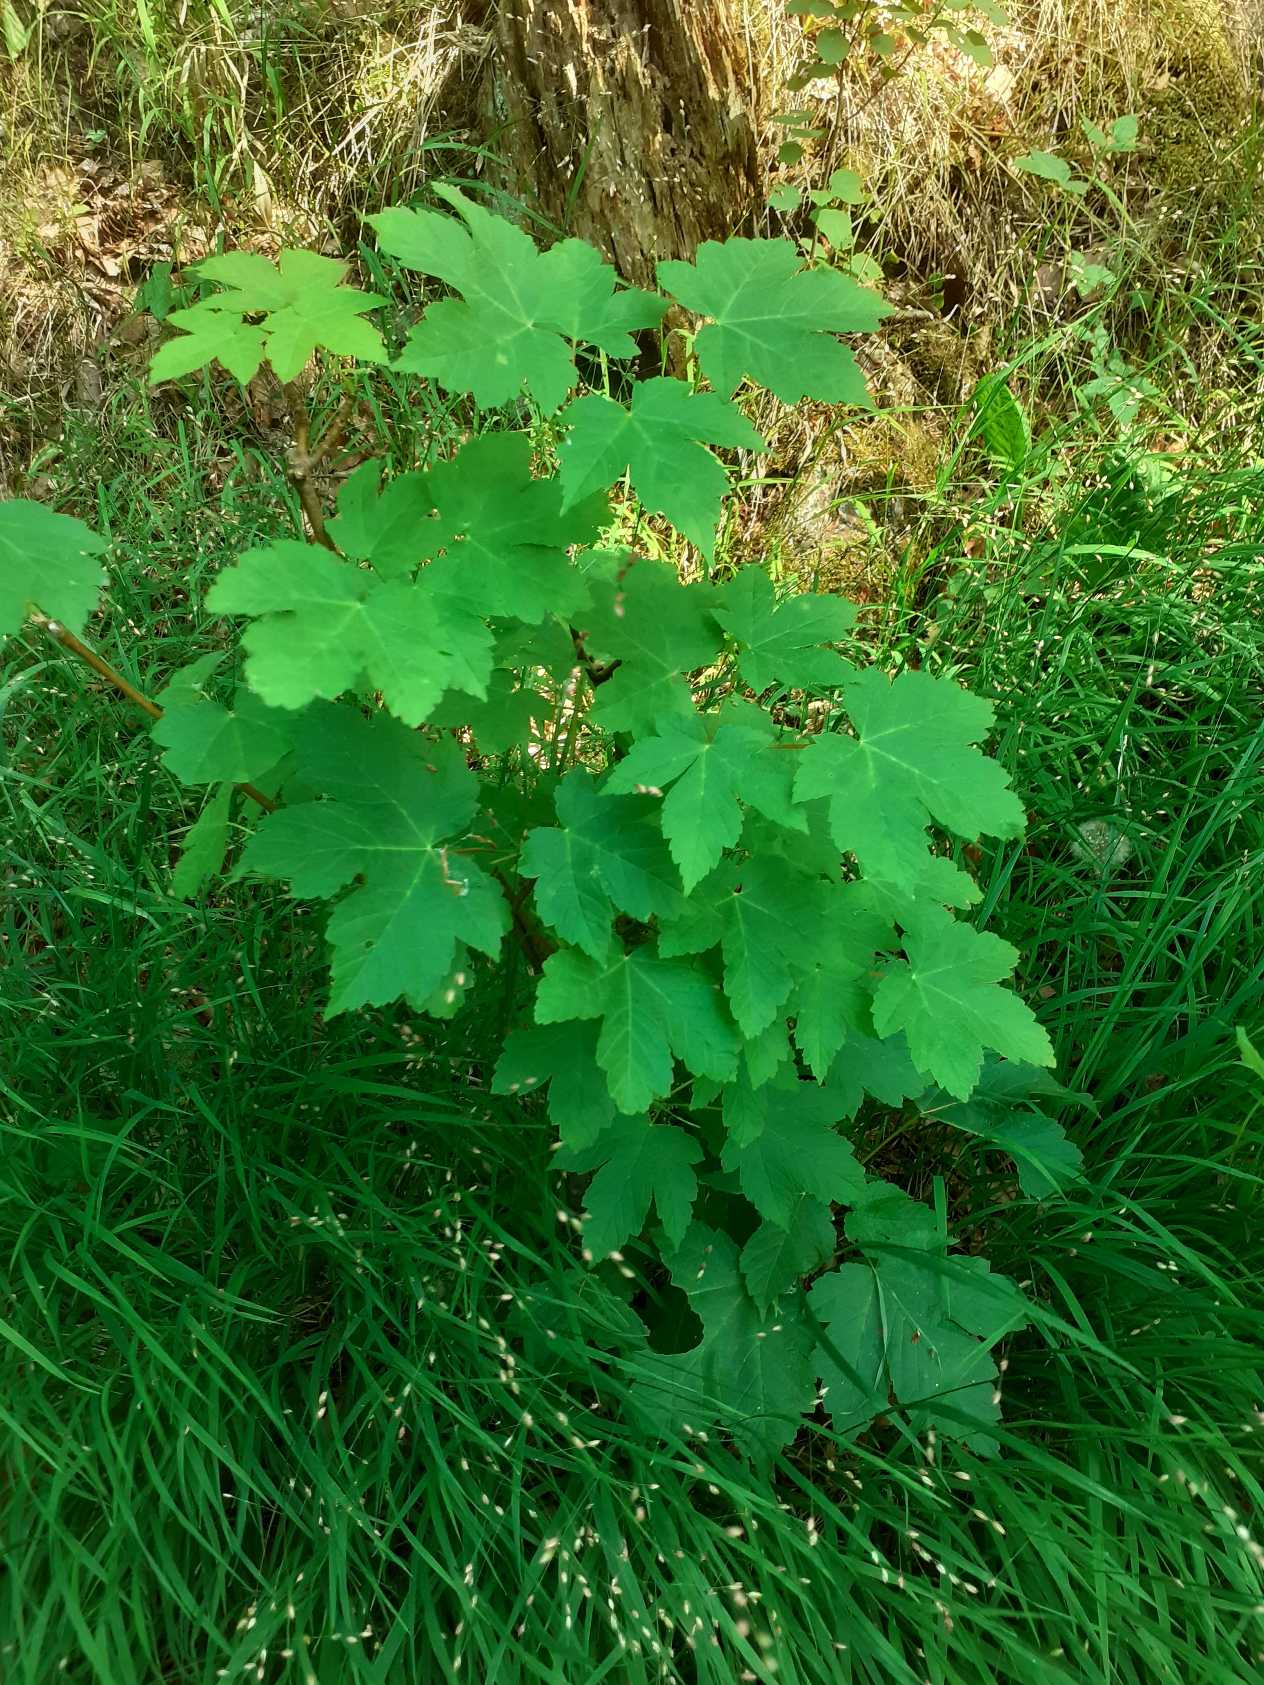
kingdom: Plantae
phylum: Tracheophyta
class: Magnoliopsida
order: Sapindales
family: Sapindaceae
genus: Acer
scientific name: Acer pseudoplatanus
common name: Ahorn
